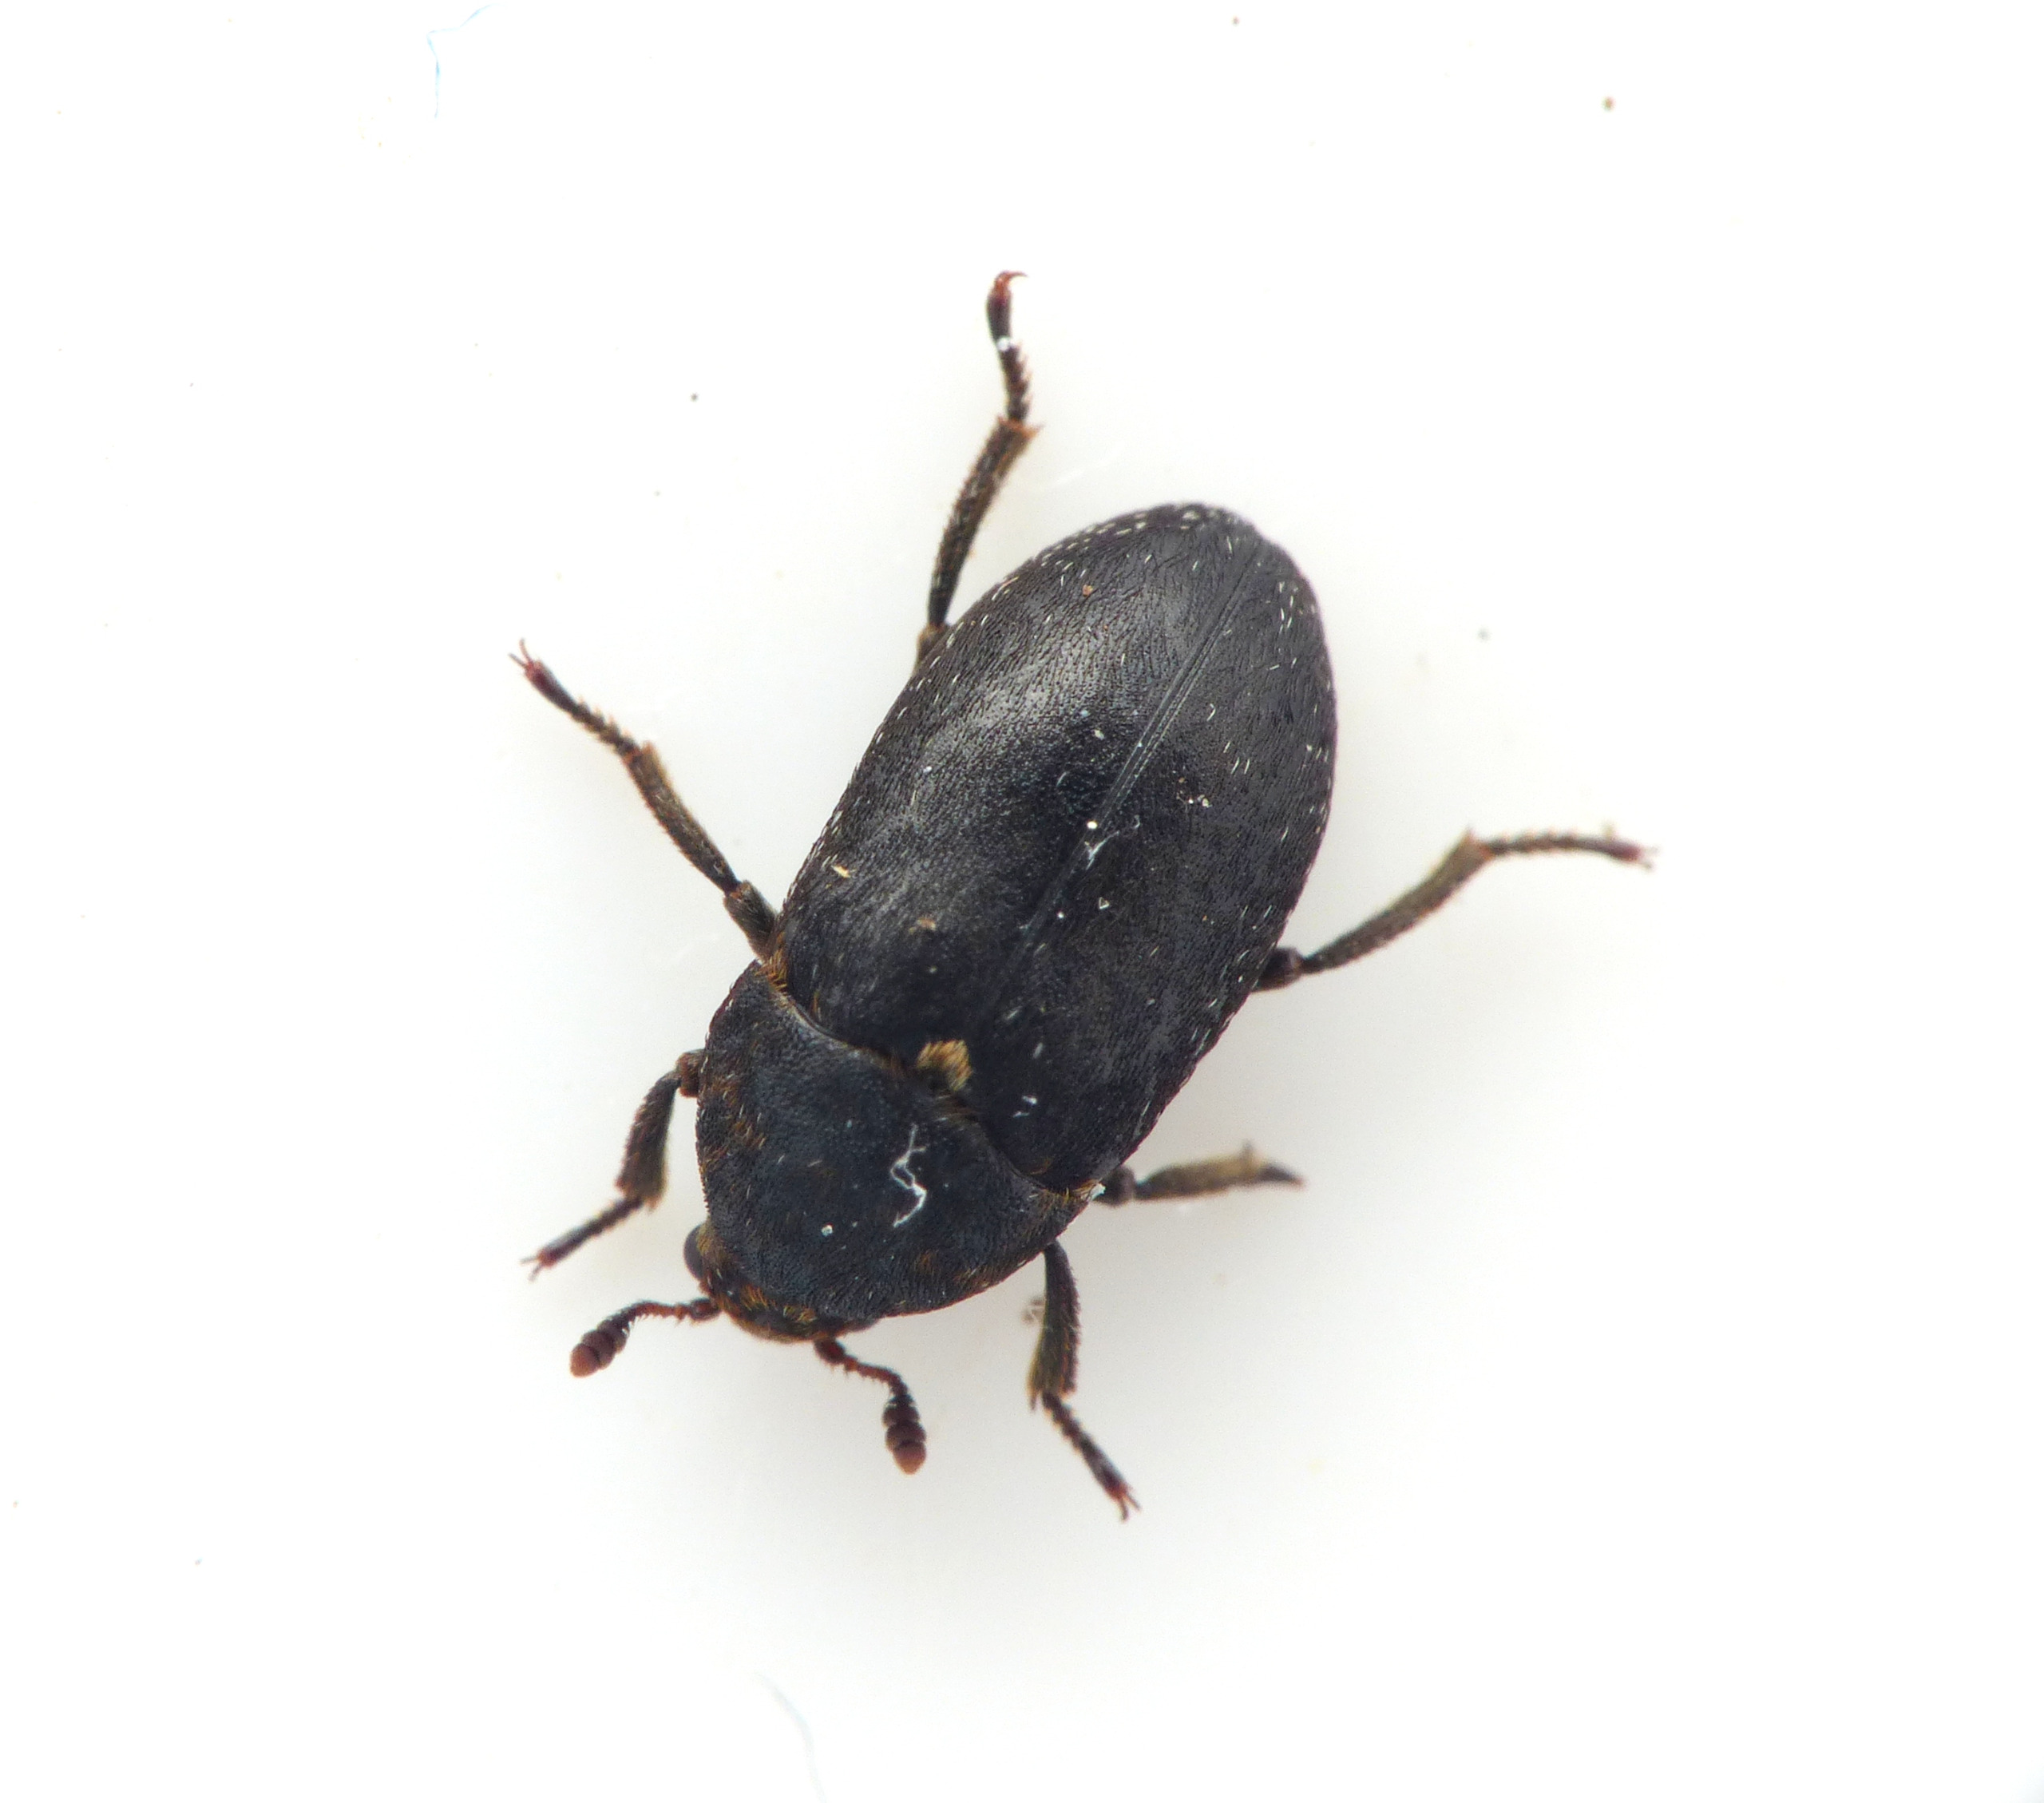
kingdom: Animalia
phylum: Arthropoda
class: Insecta
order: Coleoptera
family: Dermestidae
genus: Dermestes
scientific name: Dermestes szekessyi
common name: Strandklanner
